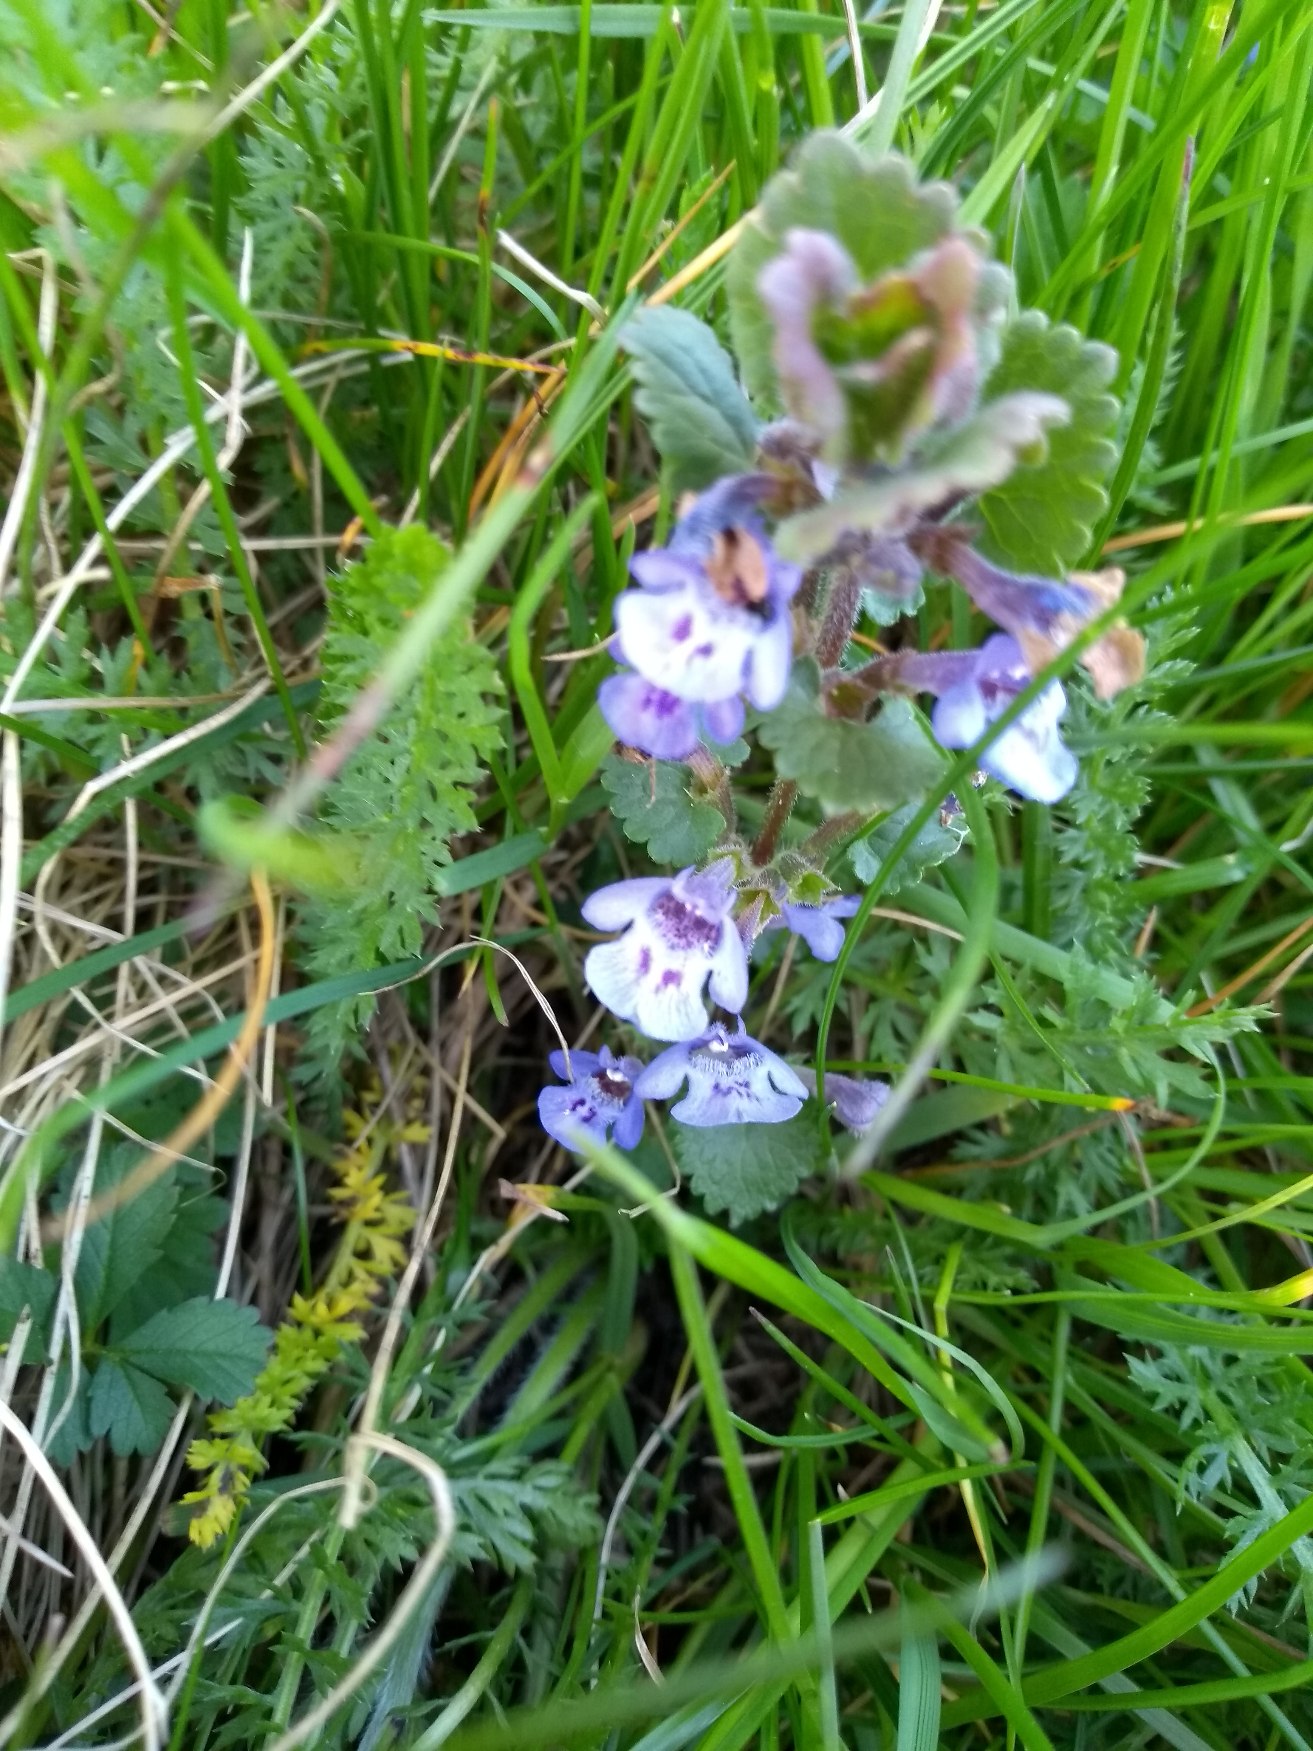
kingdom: Plantae
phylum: Tracheophyta
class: Magnoliopsida
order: Lamiales
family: Lamiaceae
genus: Glechoma
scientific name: Glechoma hederacea
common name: Korsknap
